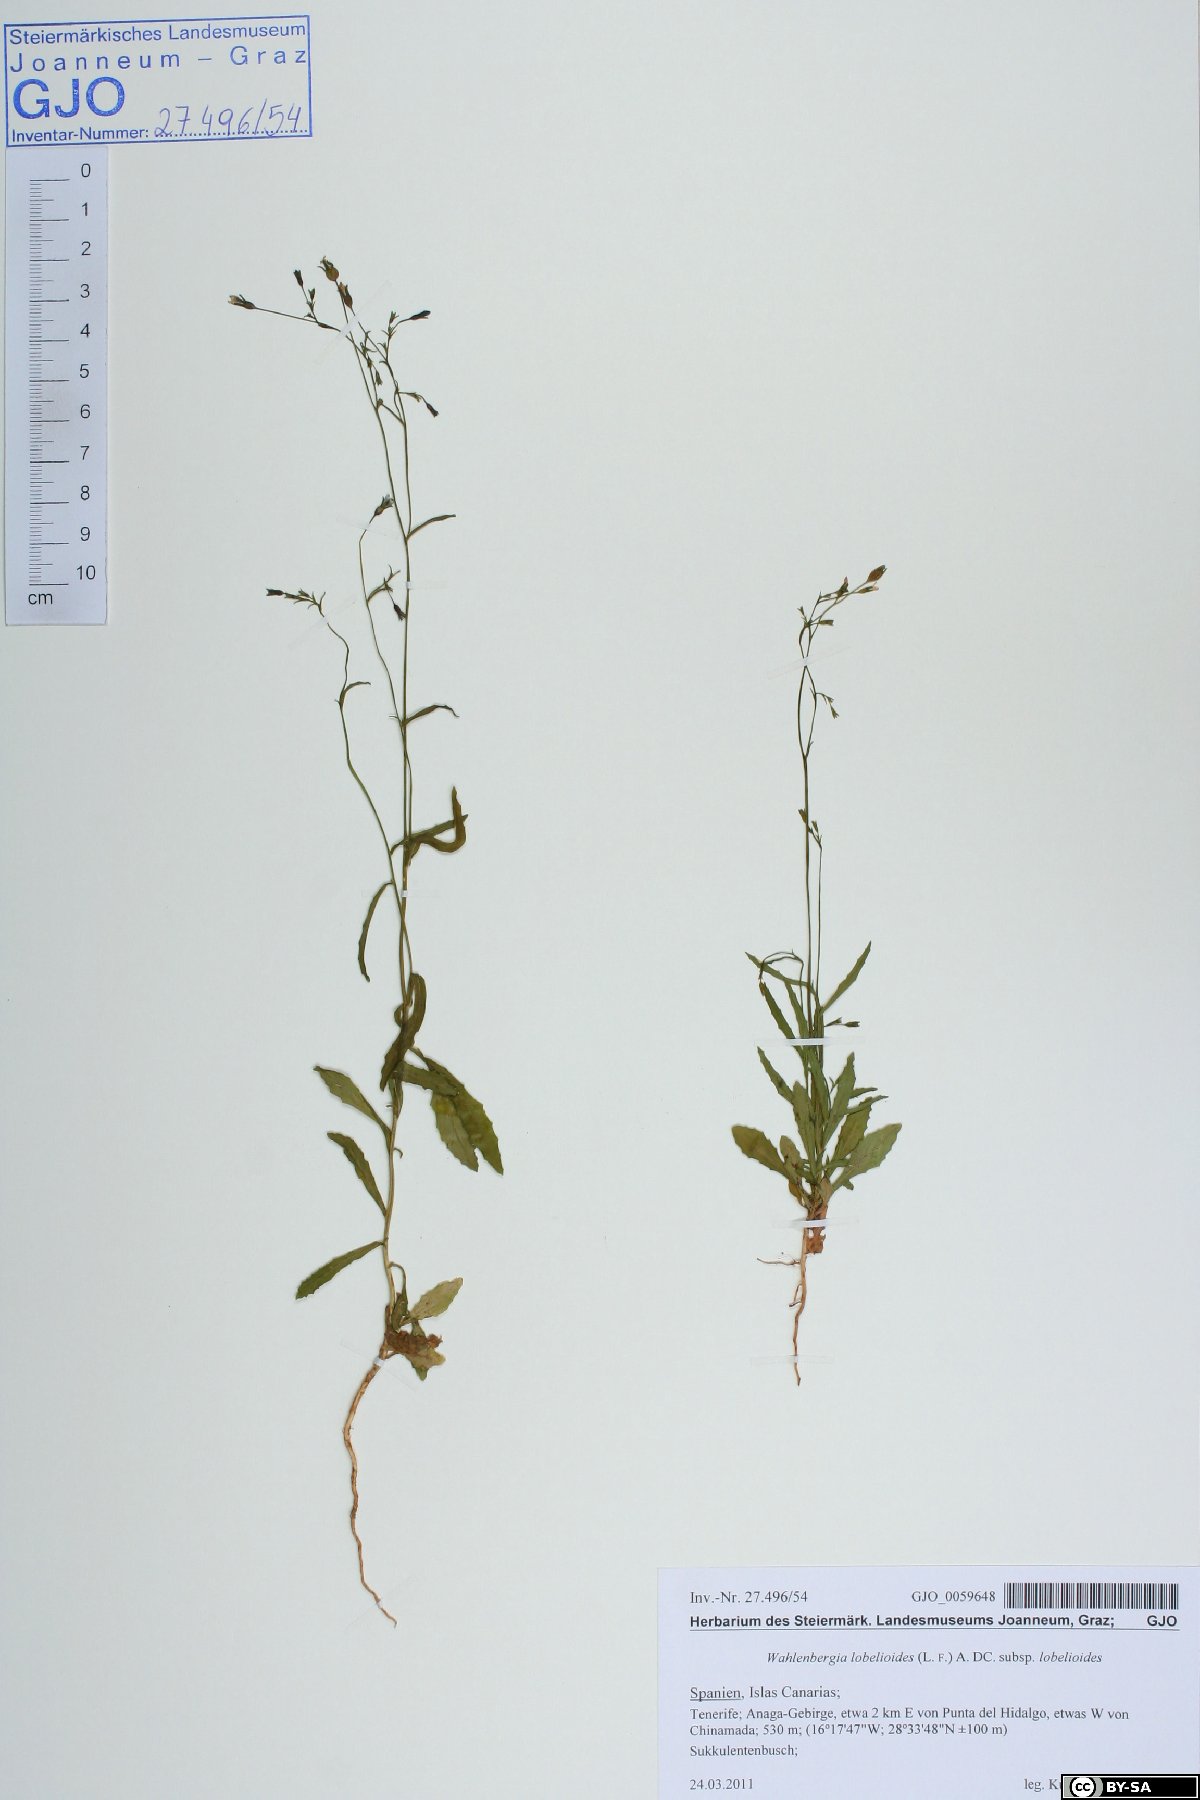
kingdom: Plantae
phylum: Tracheophyta
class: Magnoliopsida
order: Asterales
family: Campanulaceae
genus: Wahlenbergia
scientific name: Wahlenbergia lobelioides
